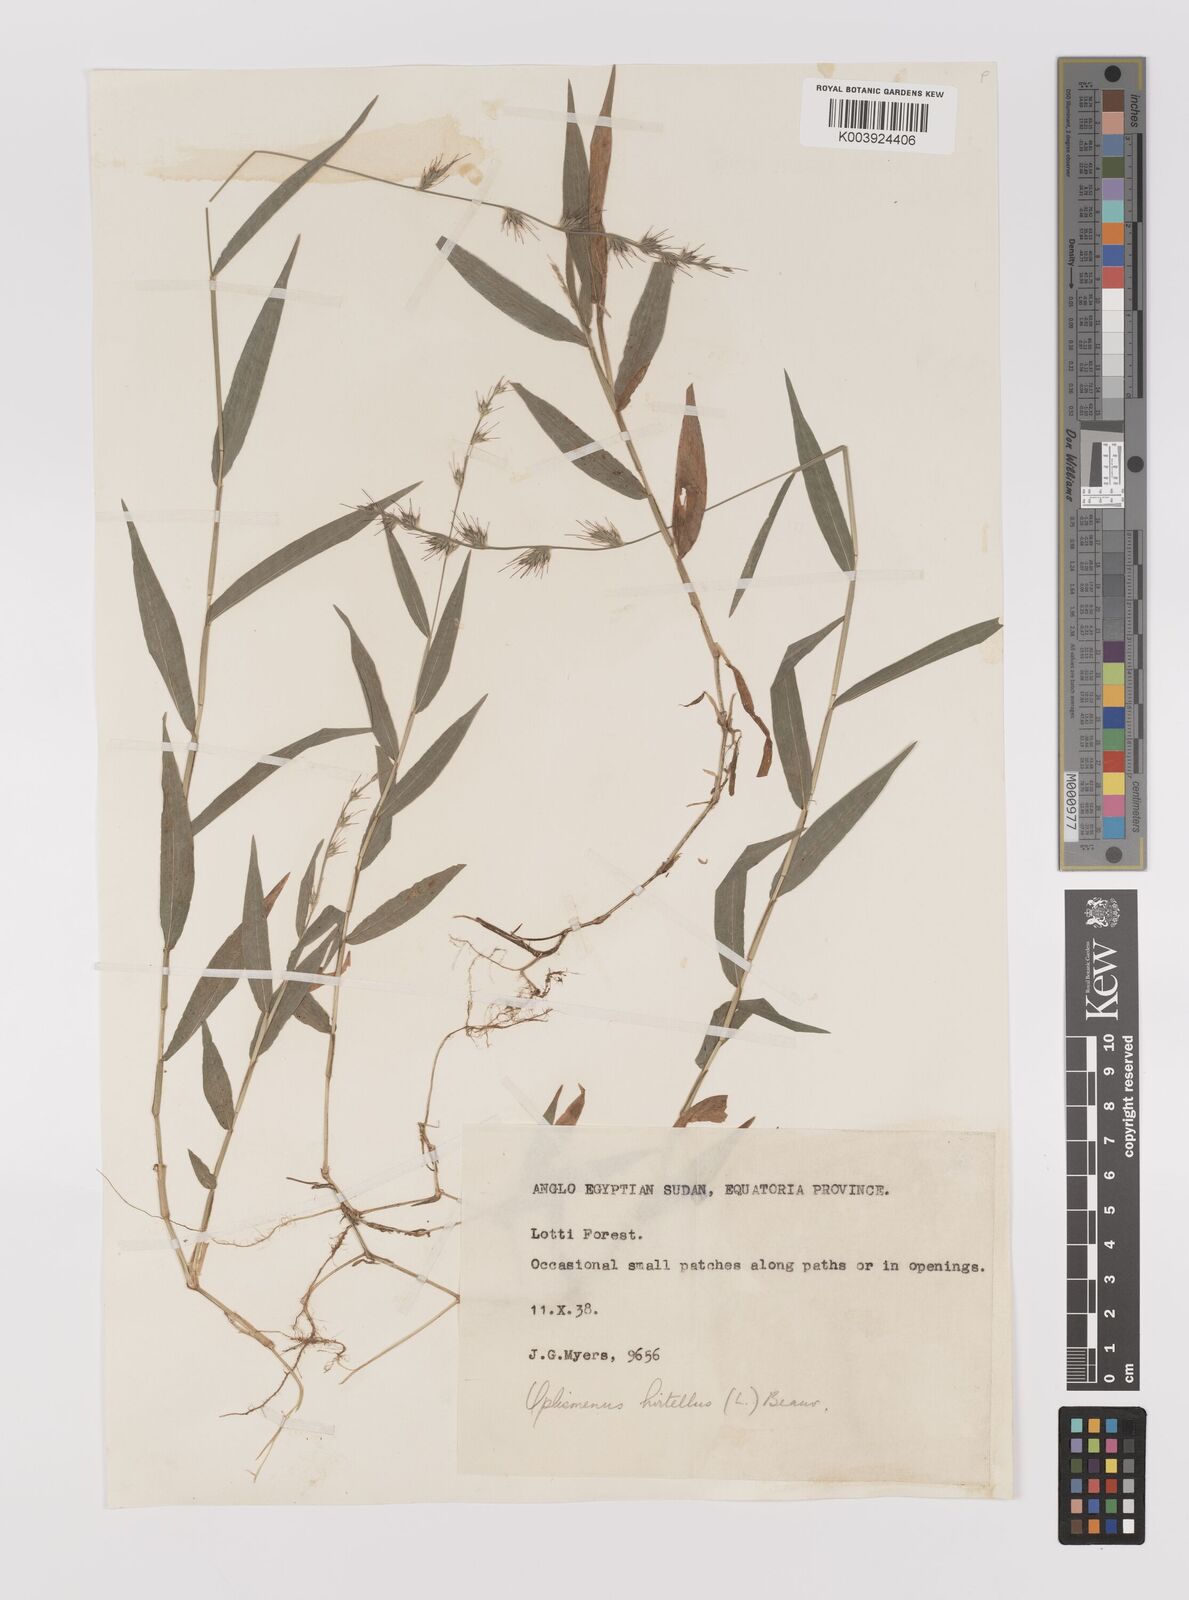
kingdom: Plantae
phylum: Tracheophyta
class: Liliopsida
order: Poales
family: Poaceae
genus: Oplismenus
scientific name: Oplismenus hirtellus
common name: Basketgrass
